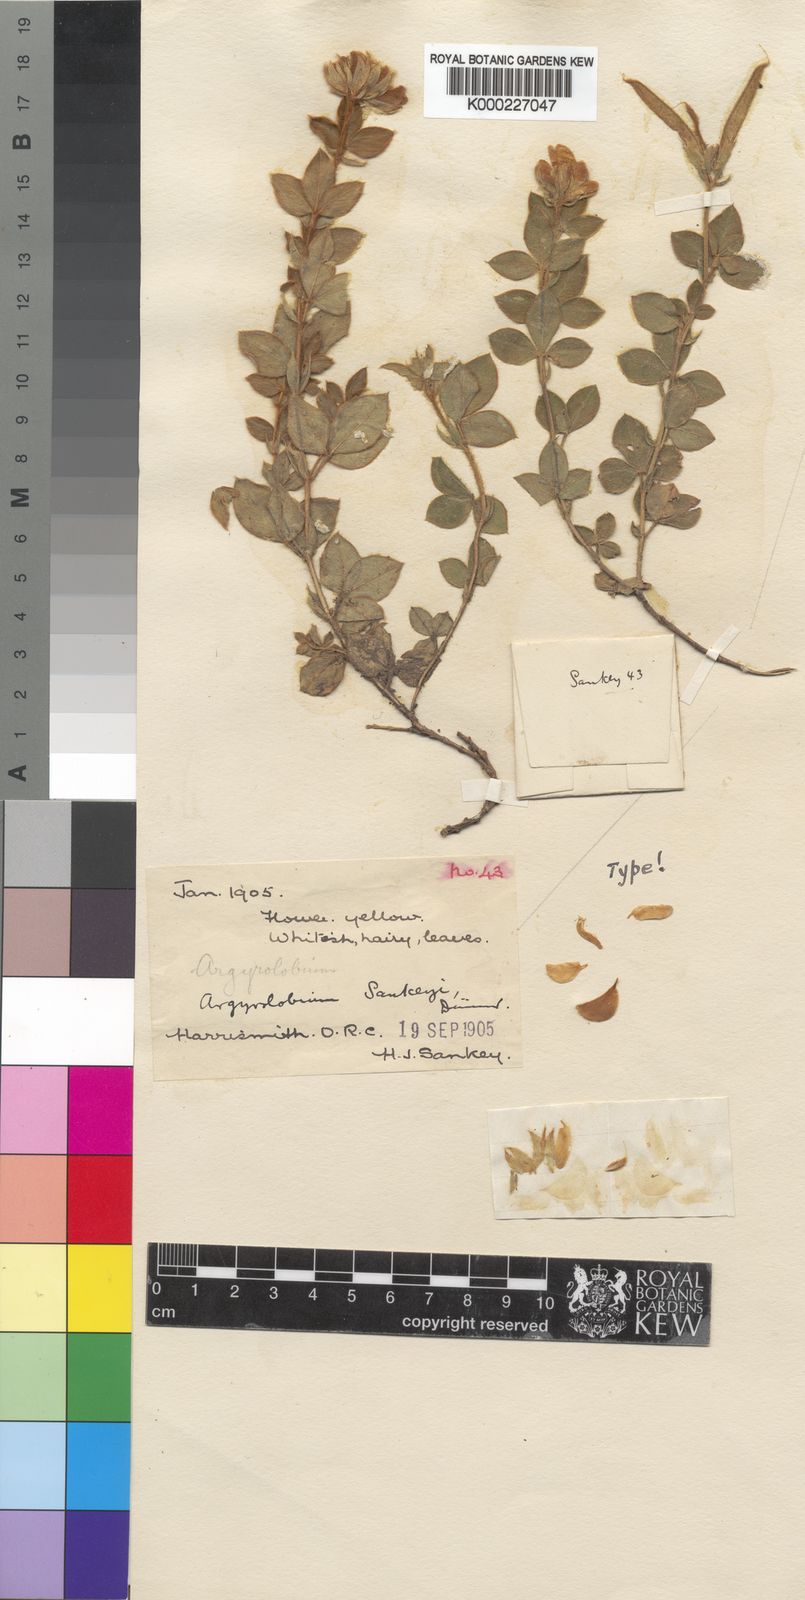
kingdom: Plantae
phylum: Tracheophyta
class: Magnoliopsida
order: Fabales
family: Fabaceae
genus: Argyrolobium
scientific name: Argyrolobium marginatum
